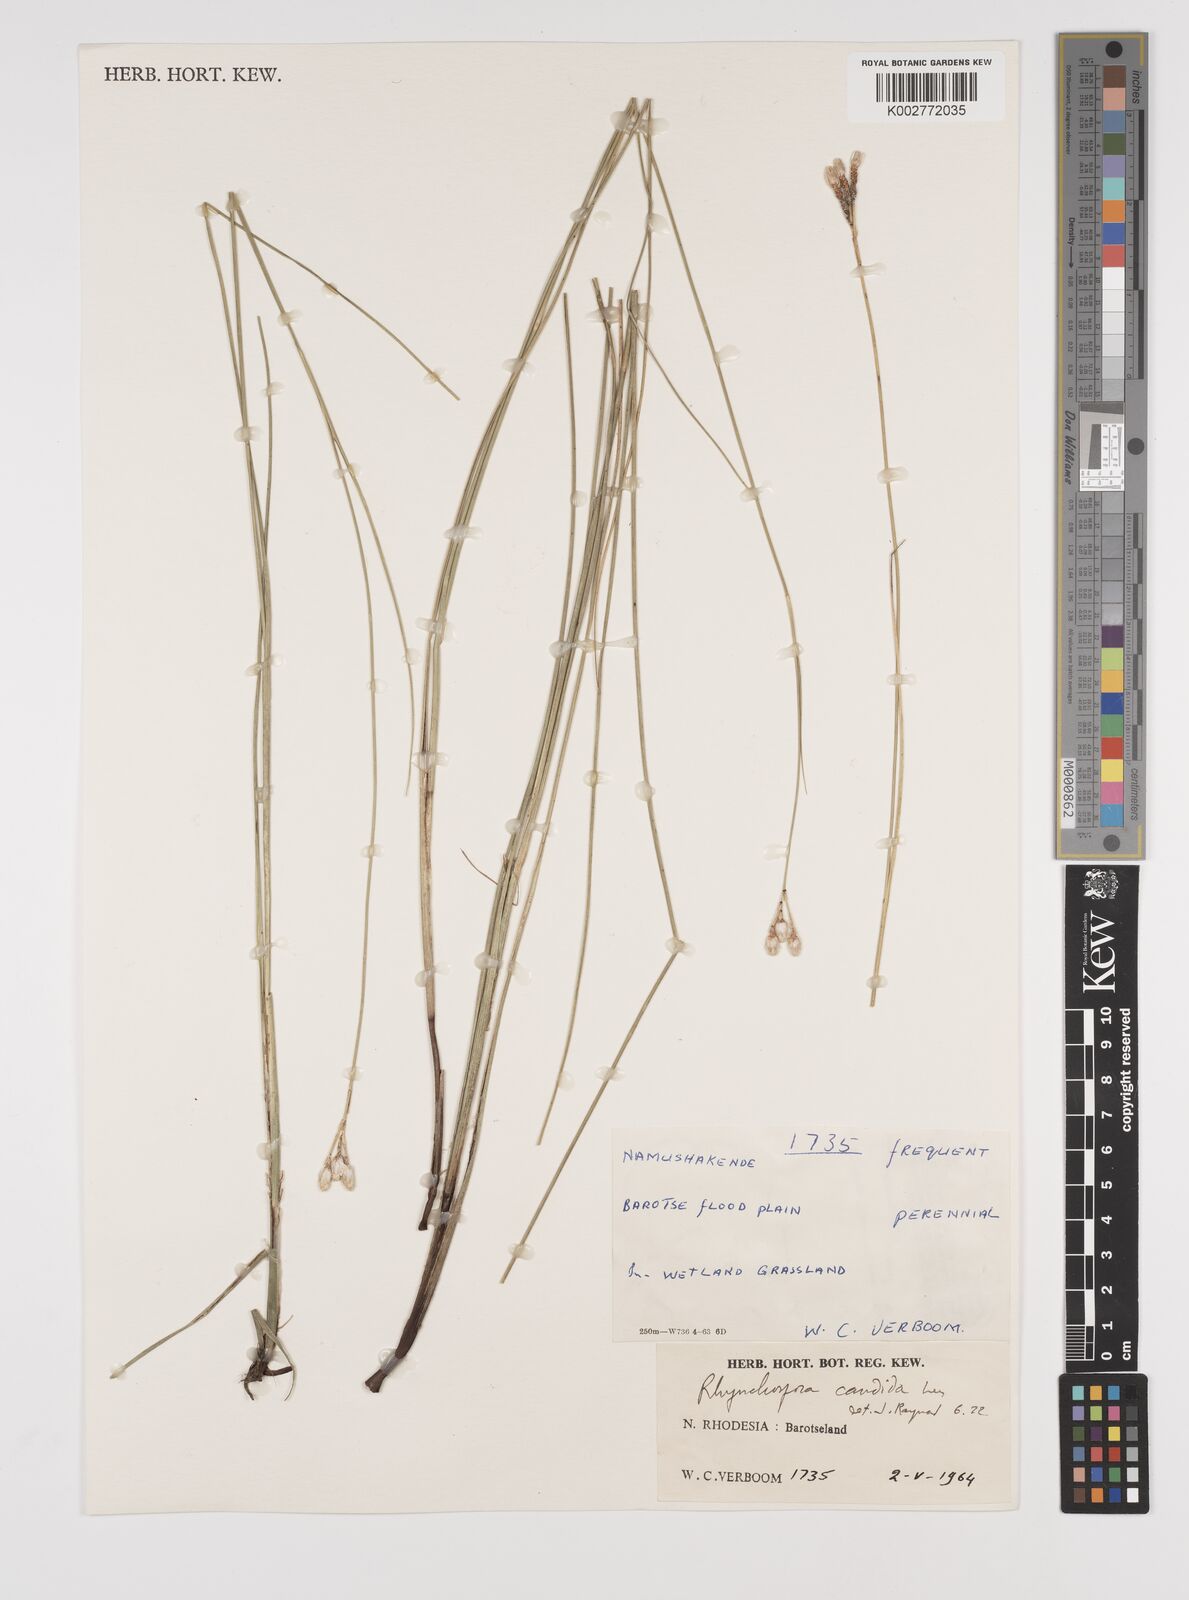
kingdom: Plantae
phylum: Tracheophyta
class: Liliopsida
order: Poales
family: Cyperaceae
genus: Rhynchospora
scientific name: Rhynchospora candida
